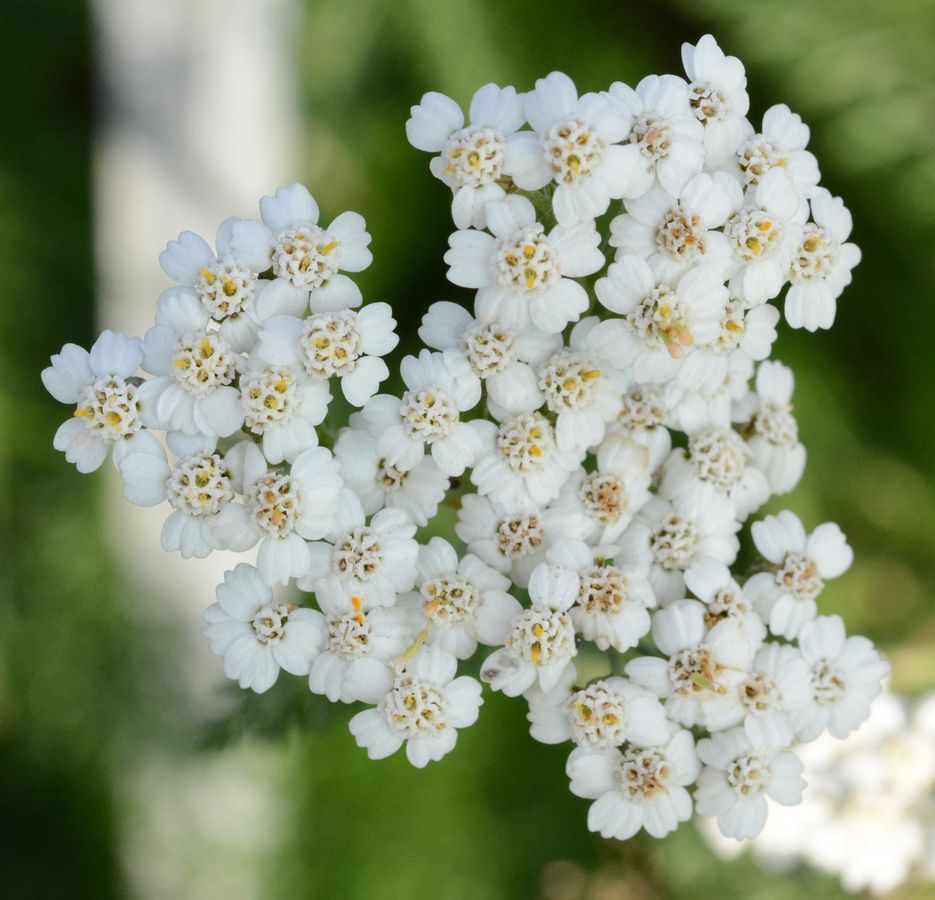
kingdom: Plantae
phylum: Tracheophyta
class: Magnoliopsida
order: Asterales
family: Asteraceae
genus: Achillea
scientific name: Achillea millefolium
